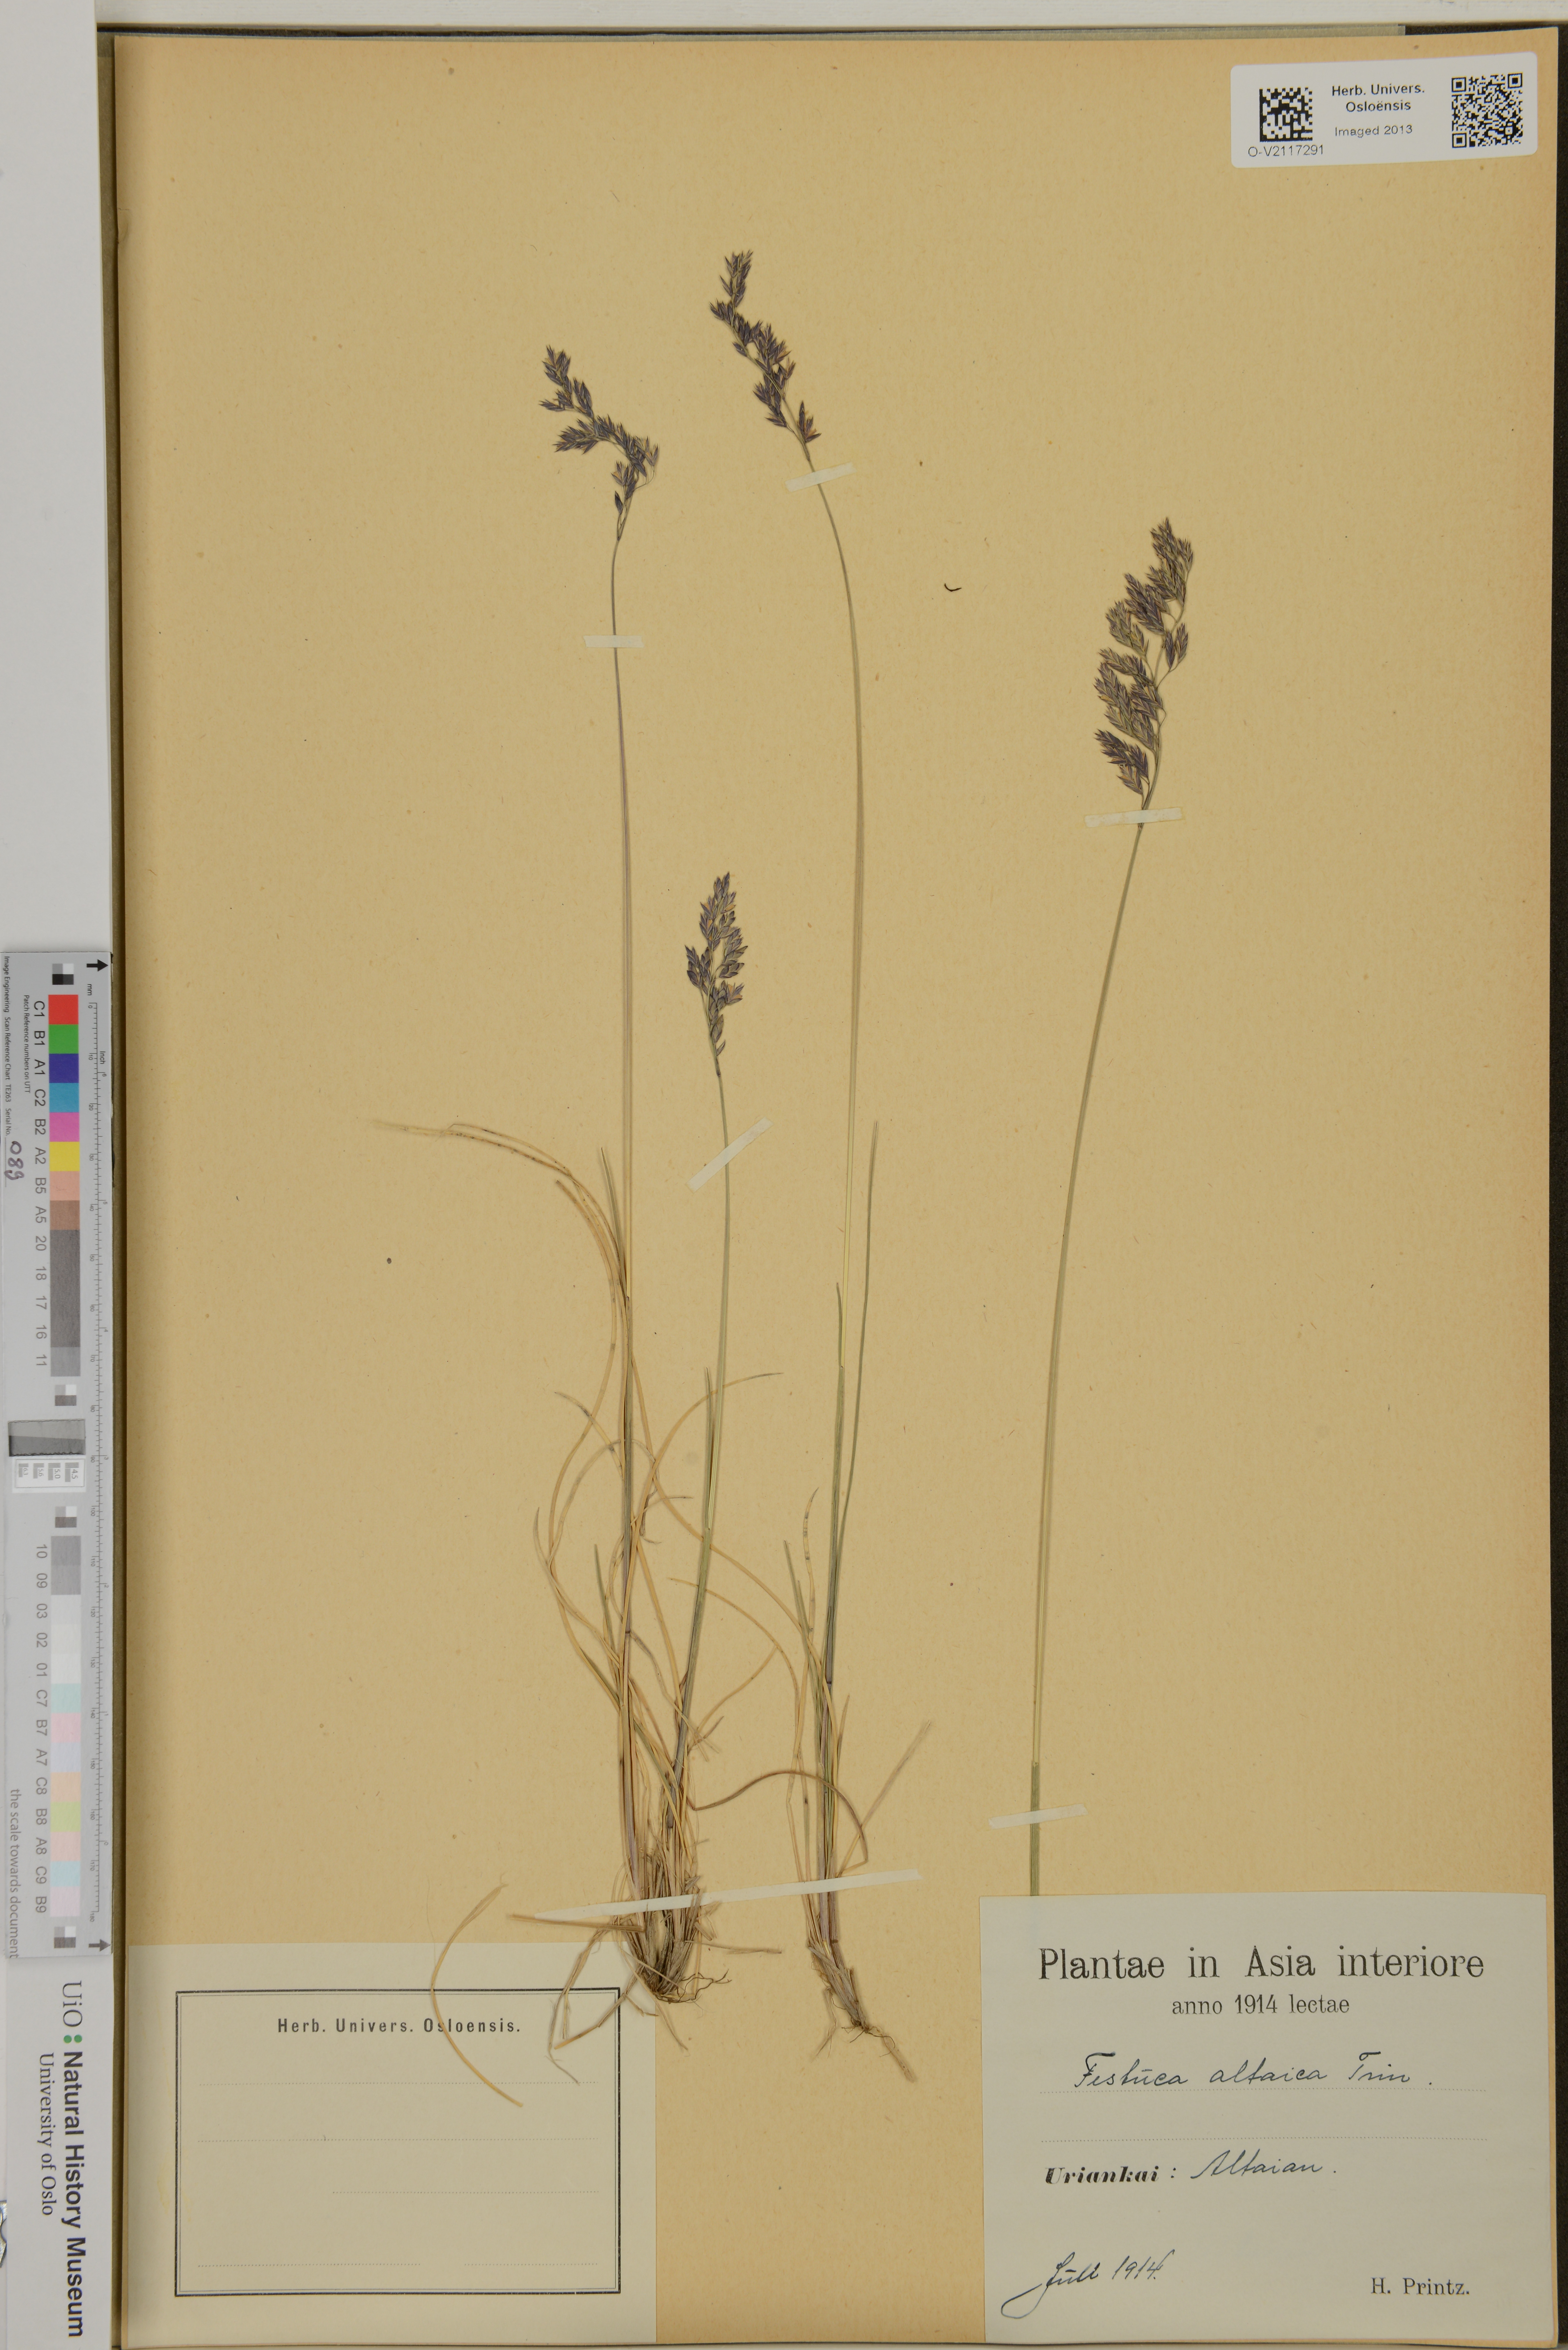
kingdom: Plantae
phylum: Tracheophyta
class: Liliopsida
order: Poales
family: Poaceae
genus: Festuca
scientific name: Festuca altaica
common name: Northern rough fescue
